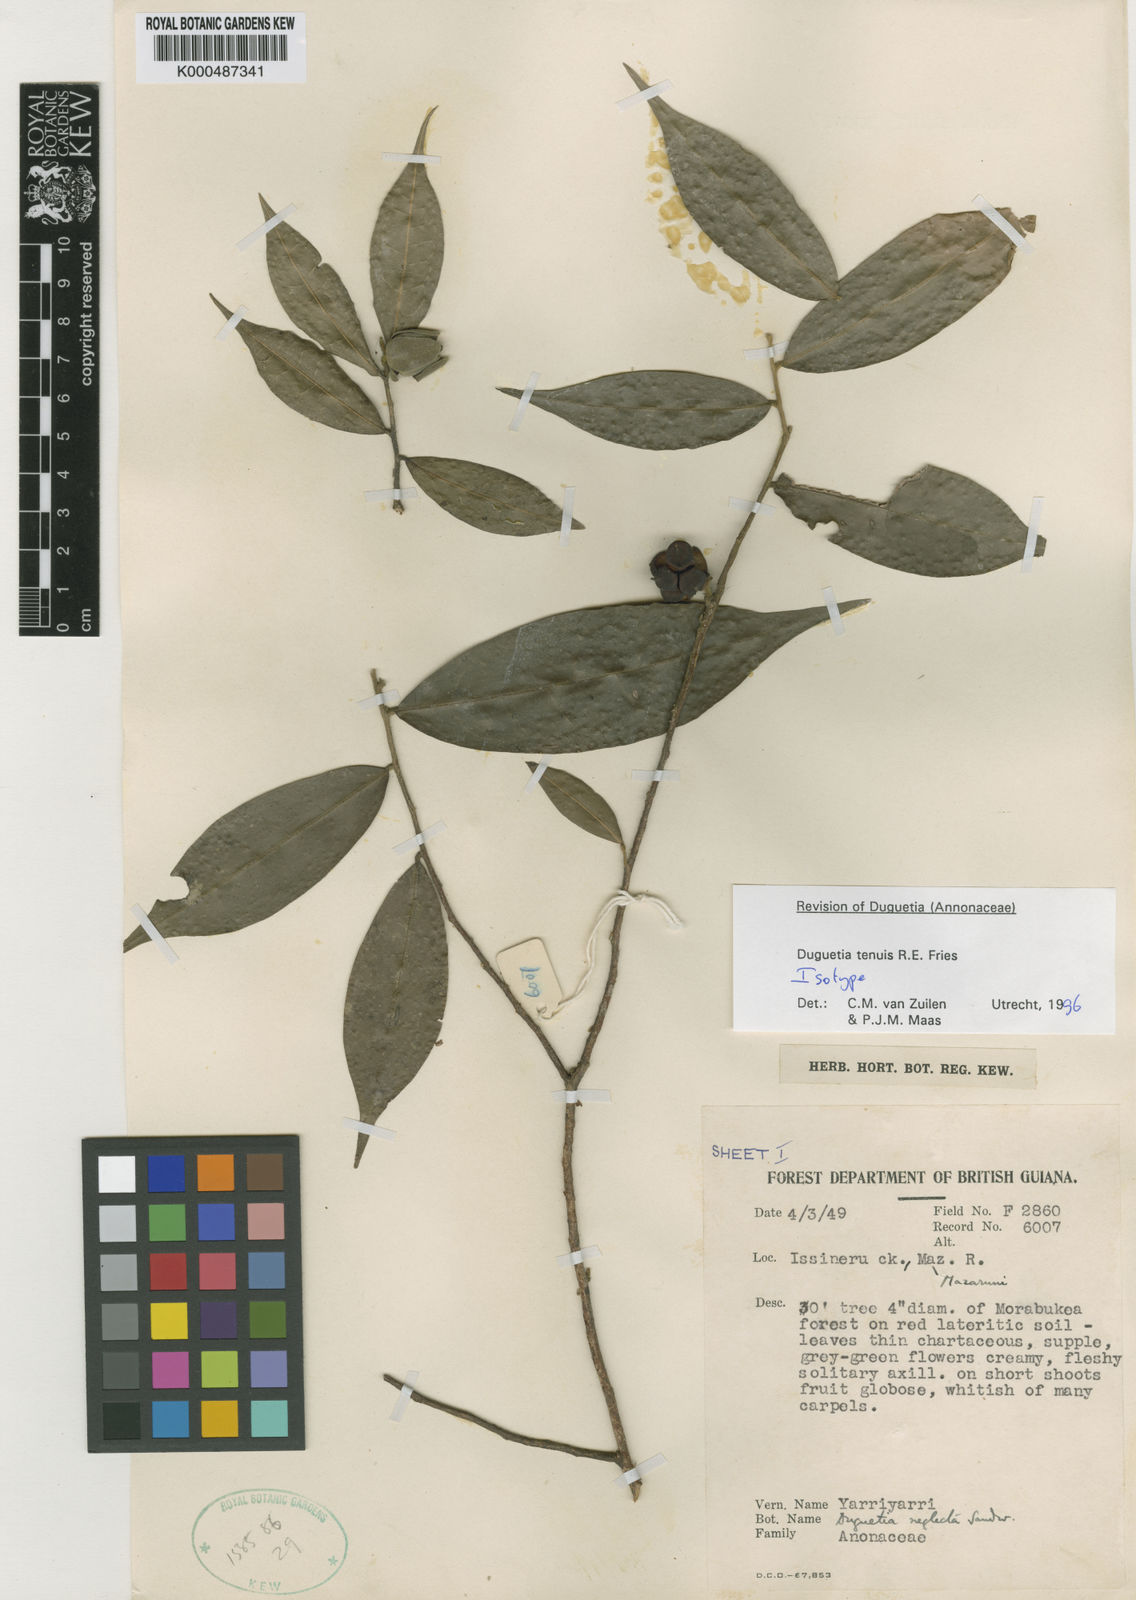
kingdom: Plantae
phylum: Tracheophyta
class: Magnoliopsida
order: Magnoliales
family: Annonaceae
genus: Duguetia
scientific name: Duguetia tenuis
